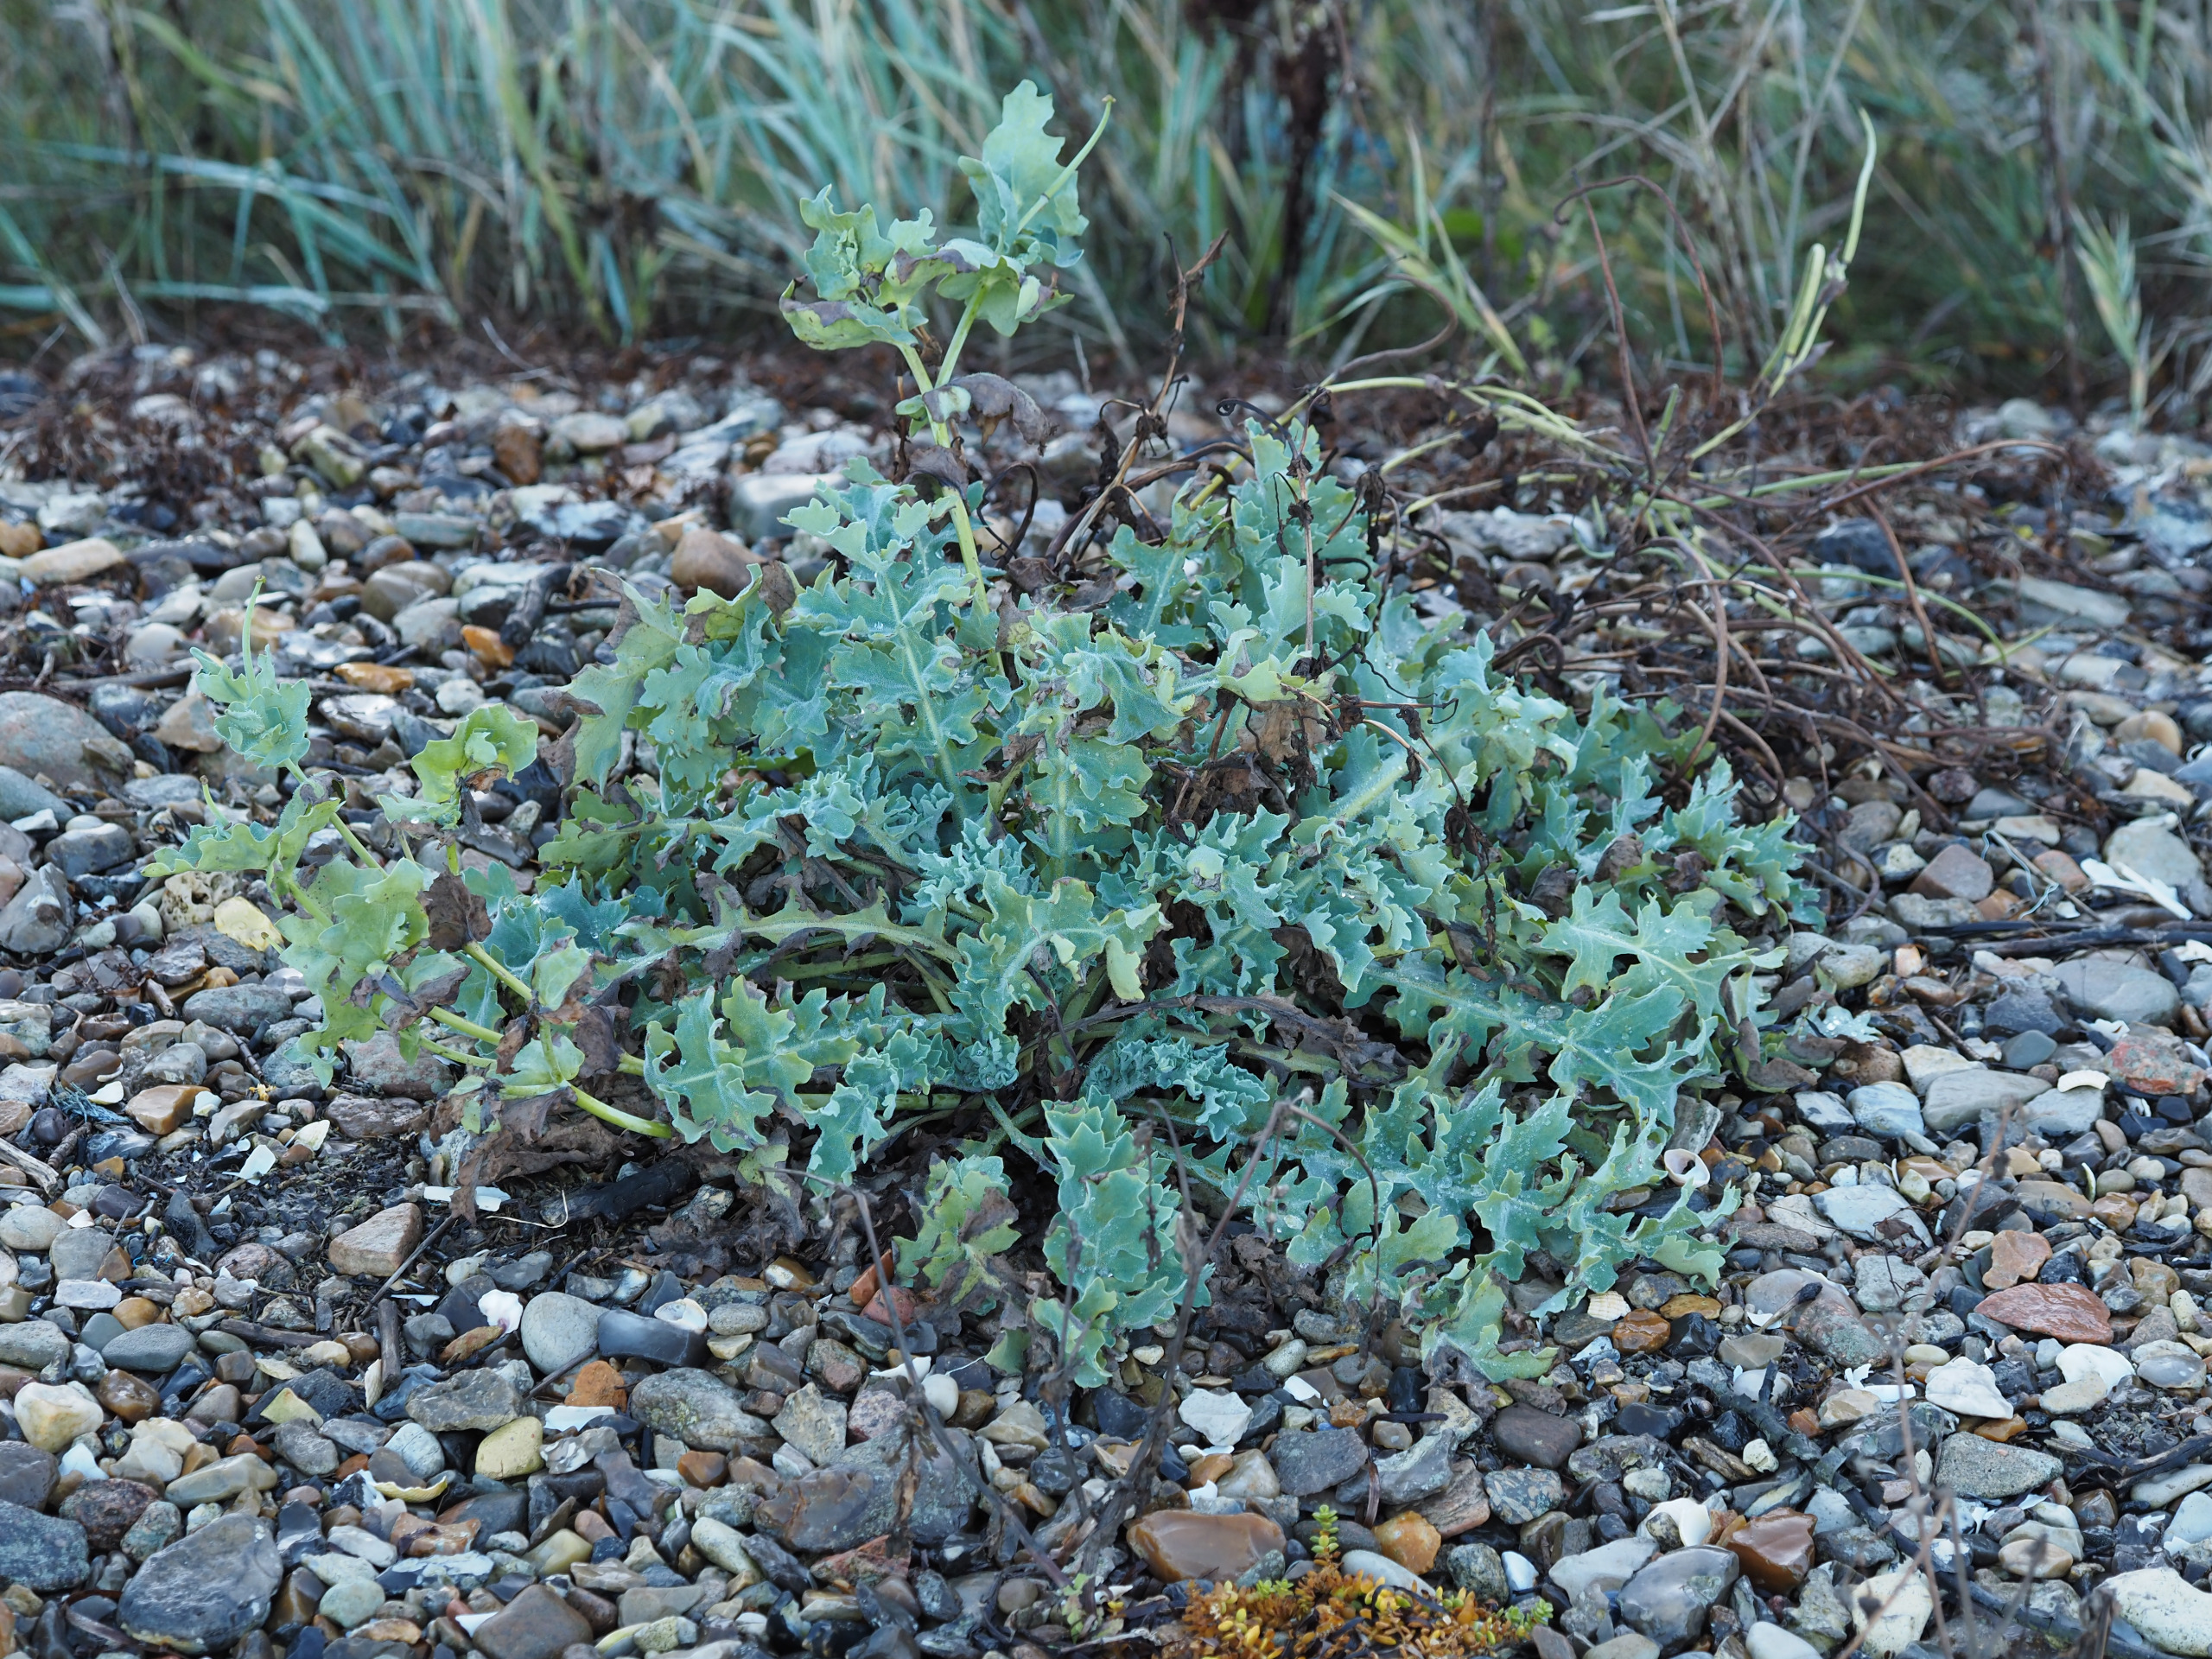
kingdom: Plantae
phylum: Tracheophyta
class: Magnoliopsida
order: Ranunculales
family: Papaveraceae
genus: Glaucium
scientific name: Glaucium flavum
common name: Hornskulpe
